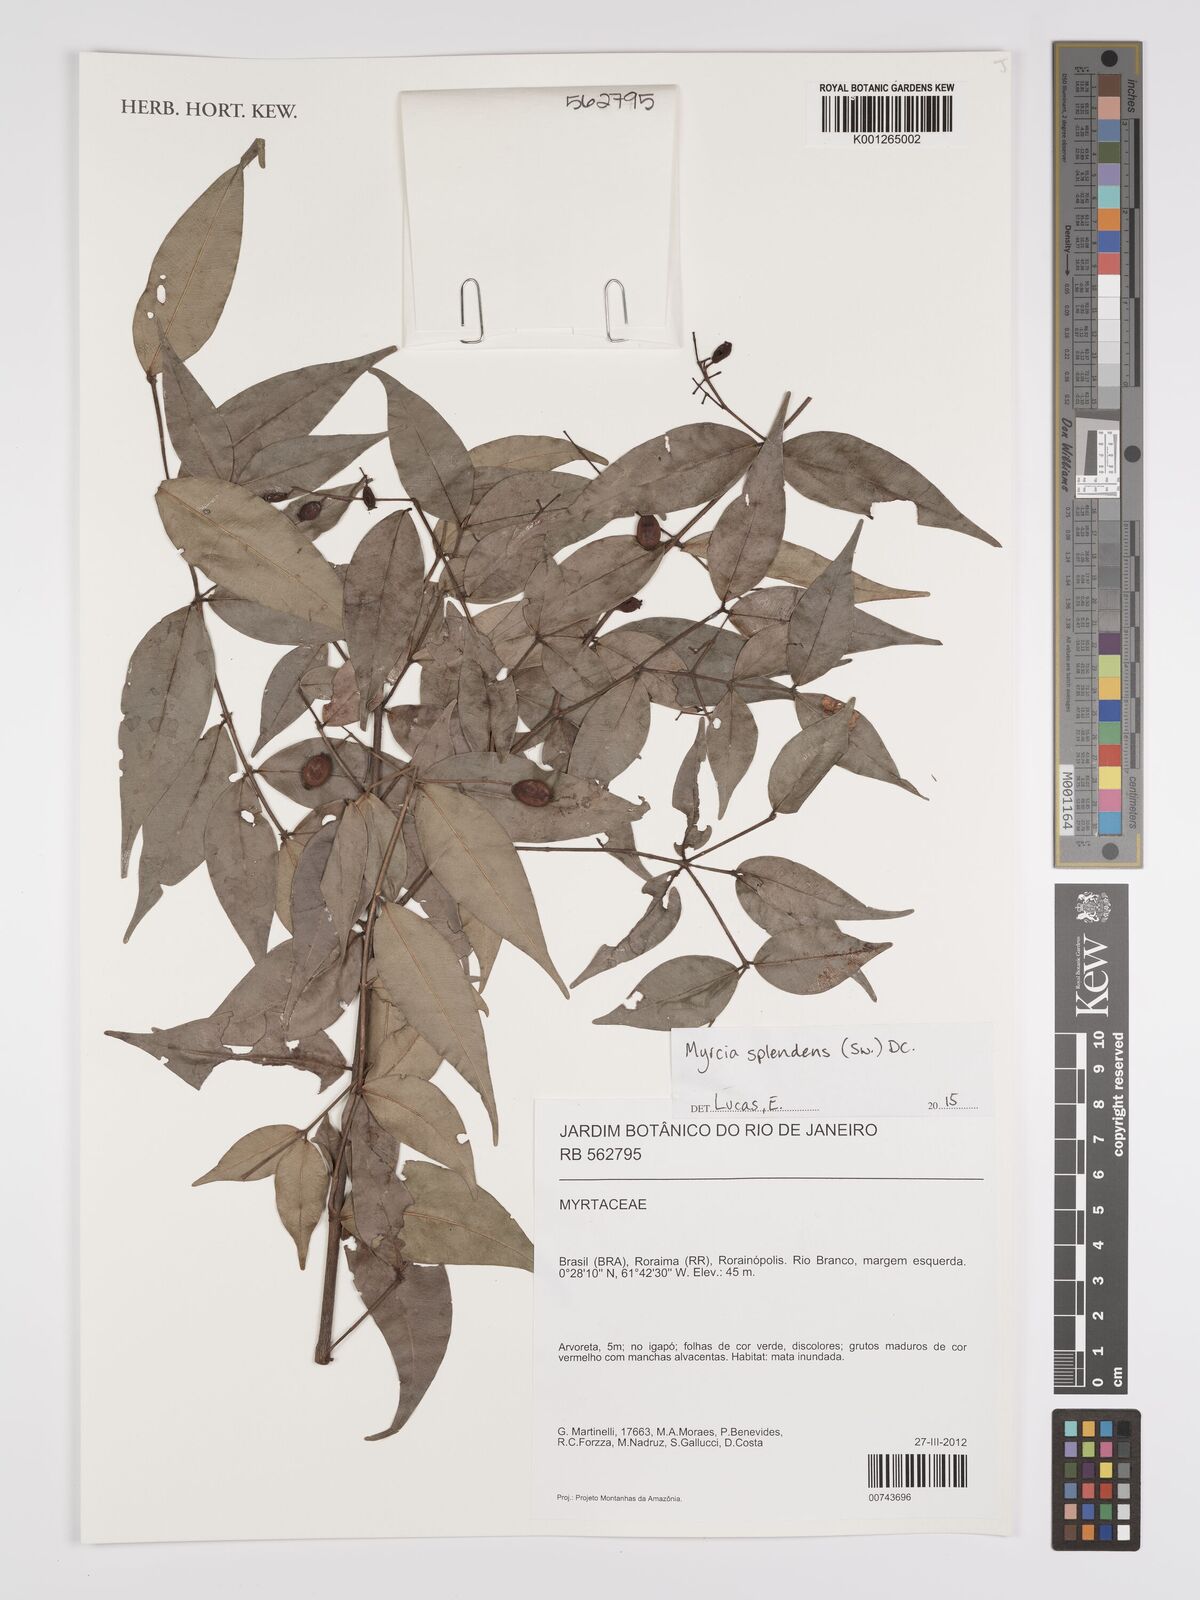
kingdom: Plantae
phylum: Tracheophyta
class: Magnoliopsida
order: Myrtales
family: Myrtaceae
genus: Myrcia
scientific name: Myrcia splendens
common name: Surinam cherry
